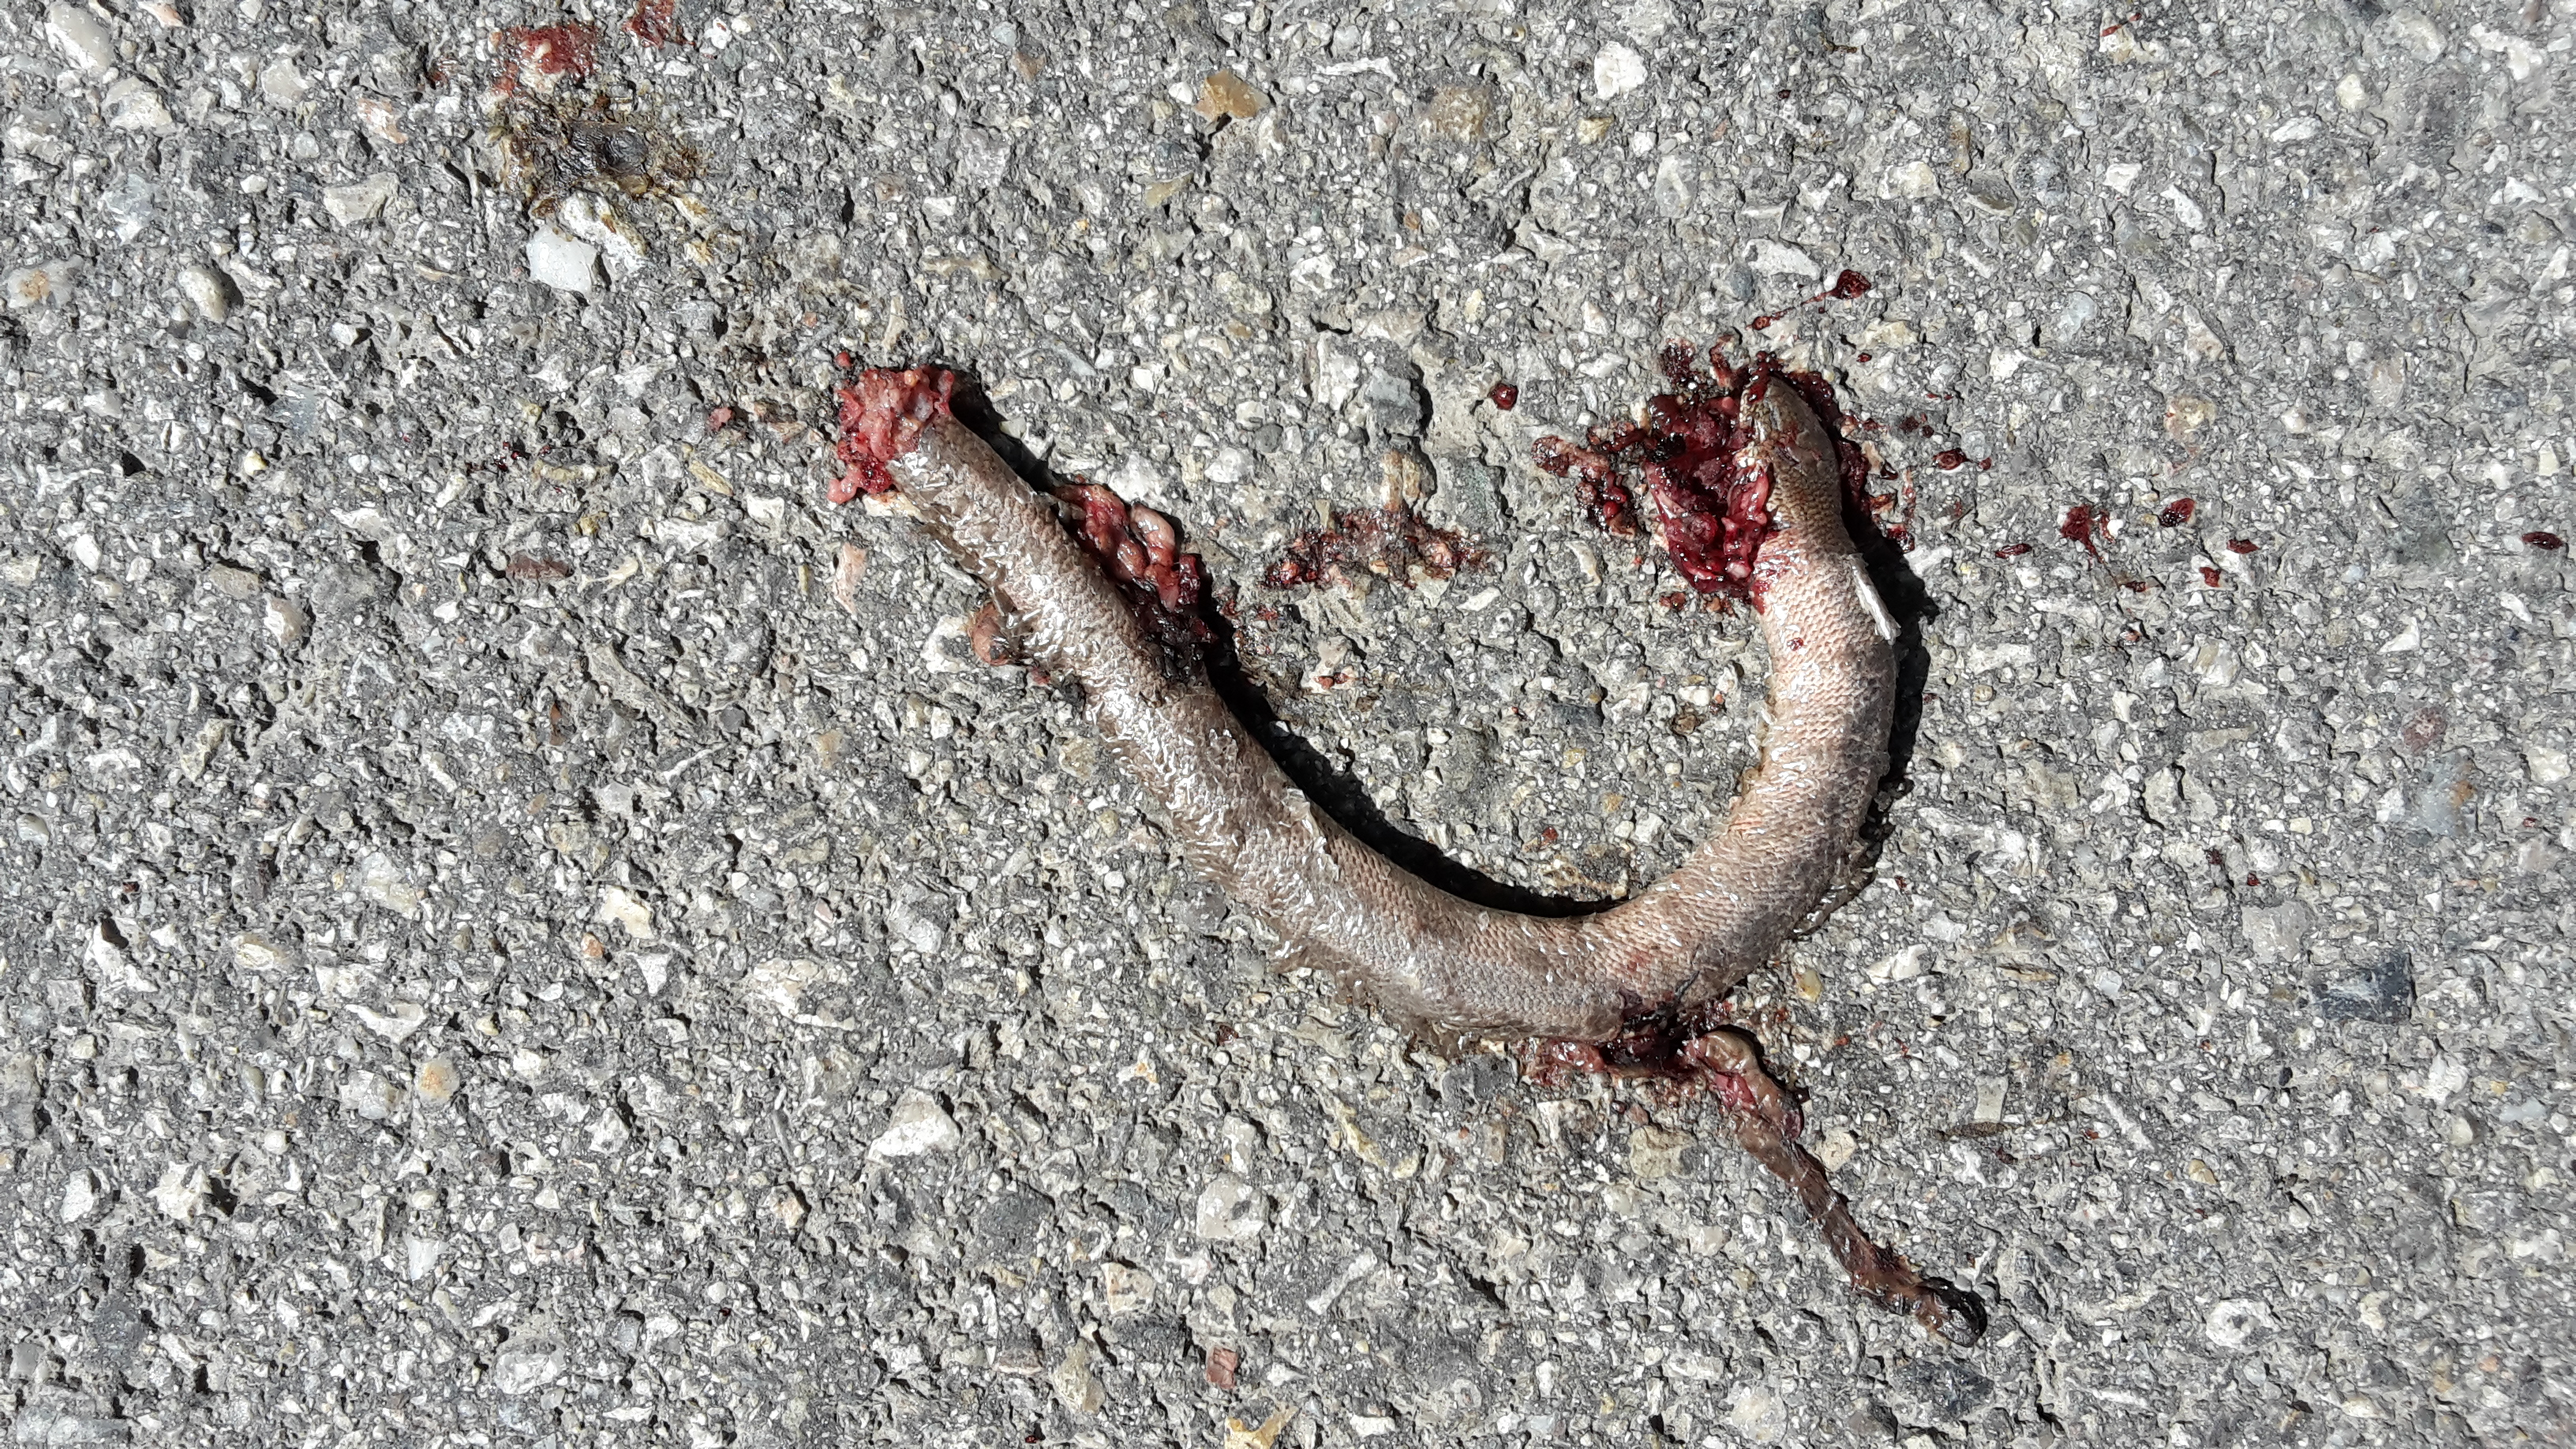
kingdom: Animalia
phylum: Chordata
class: Squamata
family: Anguidae
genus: Anguis
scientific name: Anguis fragilis
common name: Slow worm
